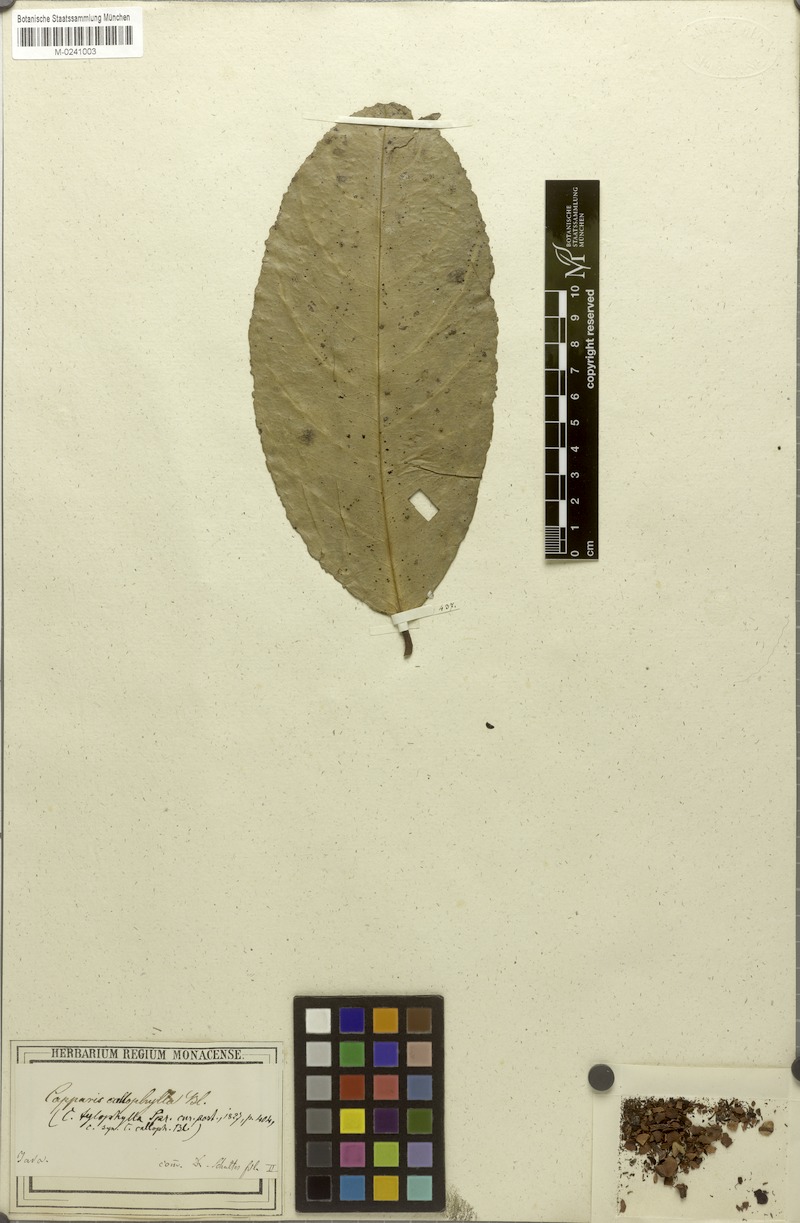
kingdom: Plantae
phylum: Tracheophyta
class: Magnoliopsida
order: Brassicales
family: Capparaceae
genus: Capparis
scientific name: Capparis callophylla
